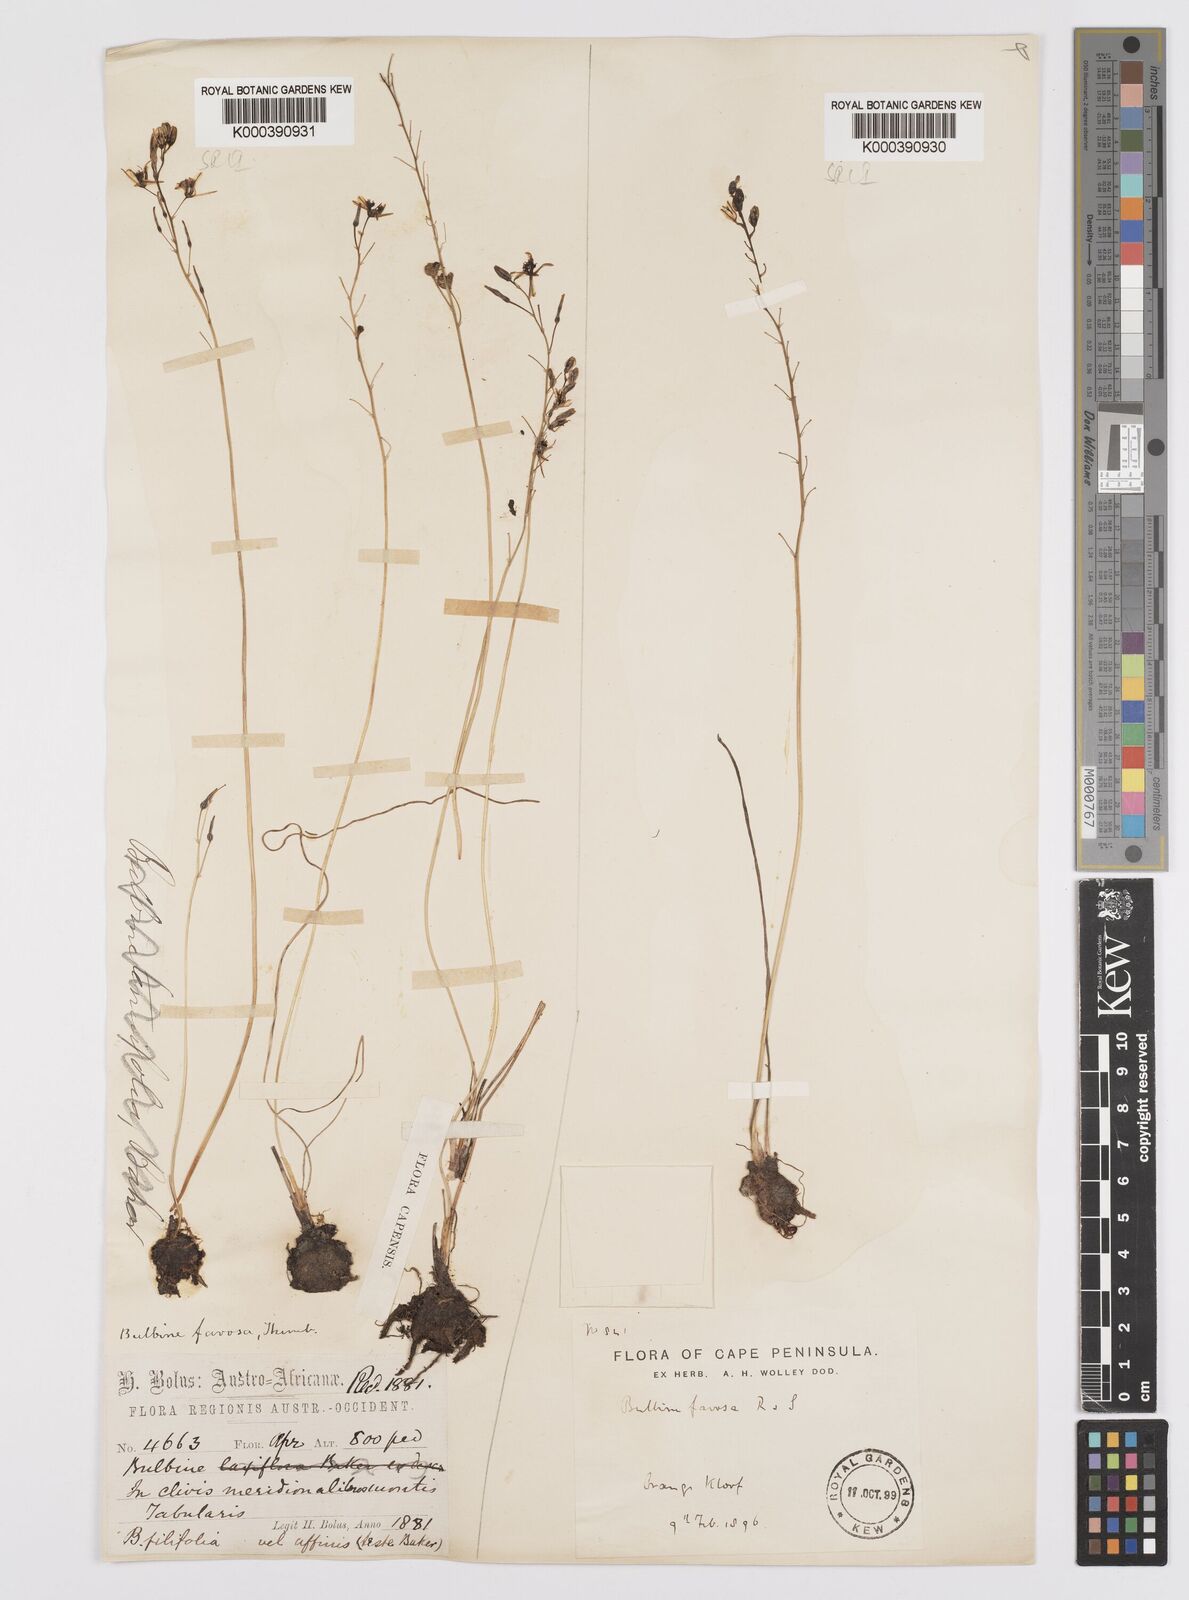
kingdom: Plantae
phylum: Tracheophyta
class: Liliopsida
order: Asparagales
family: Asphodelaceae
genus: Bulbine
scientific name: Bulbine favosa
